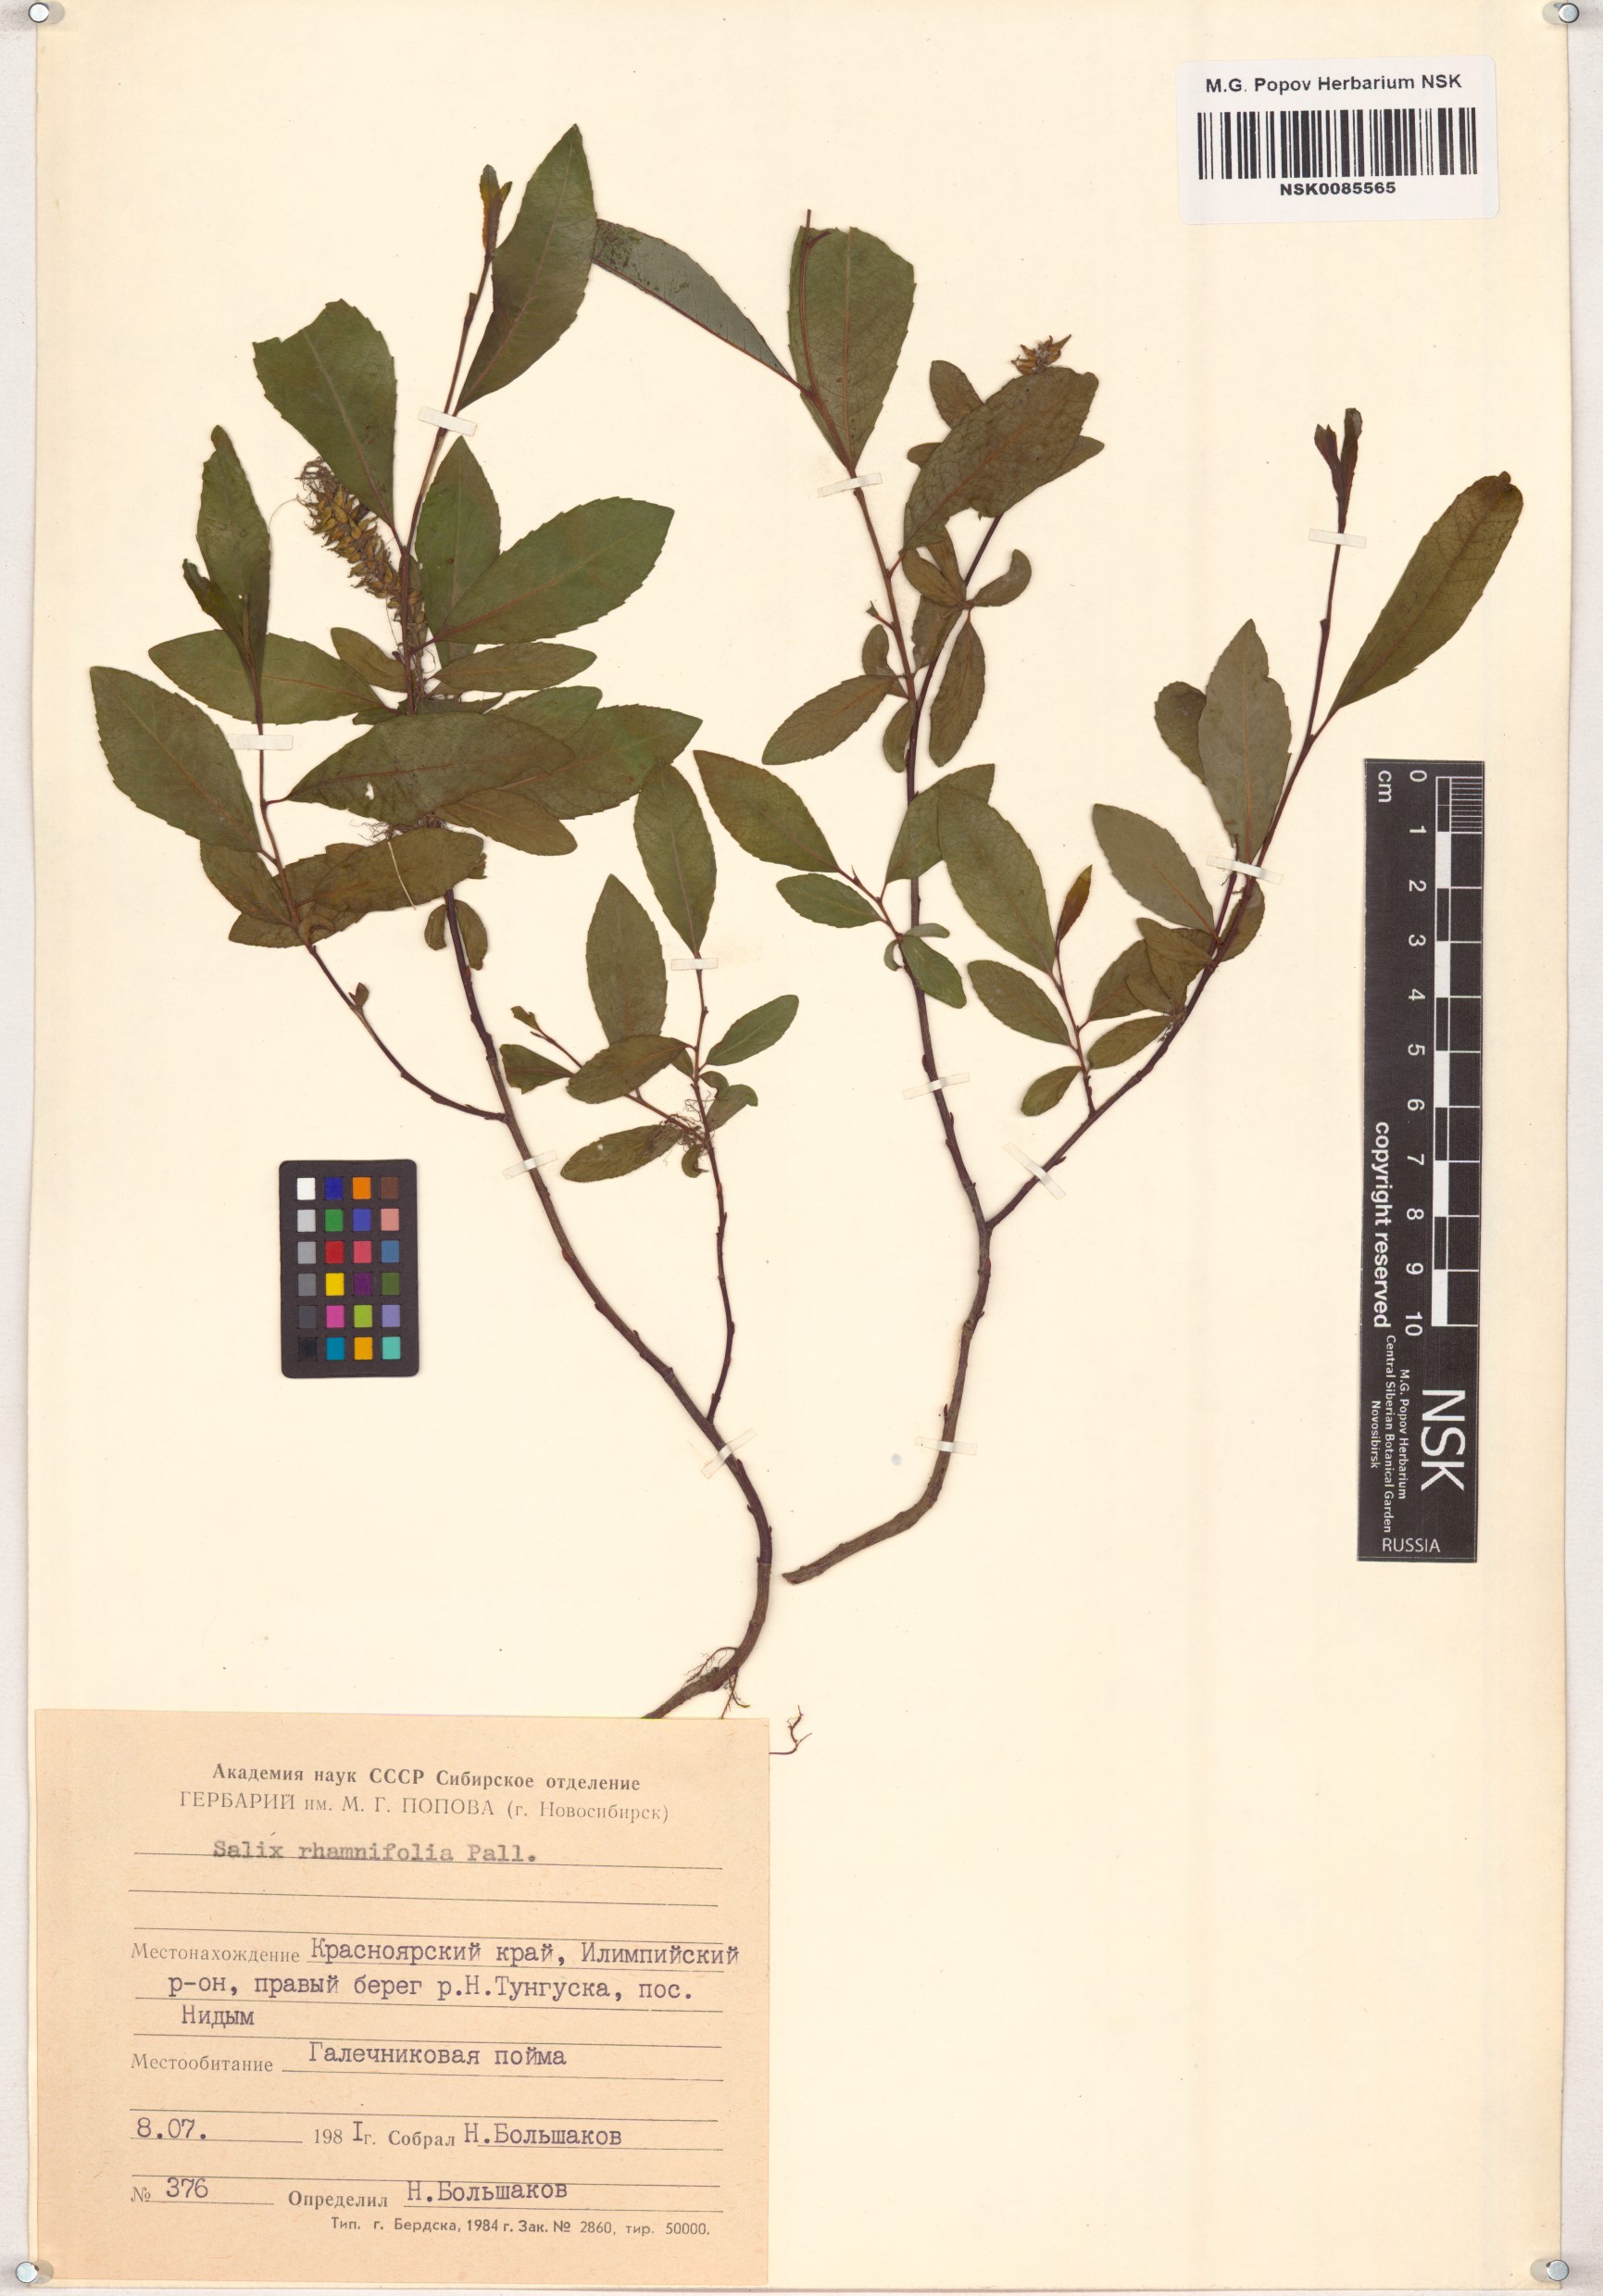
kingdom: Plantae
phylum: Tracheophyta
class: Magnoliopsida
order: Malpighiales
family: Salicaceae
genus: Salix
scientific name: Salix rhamnifolia
